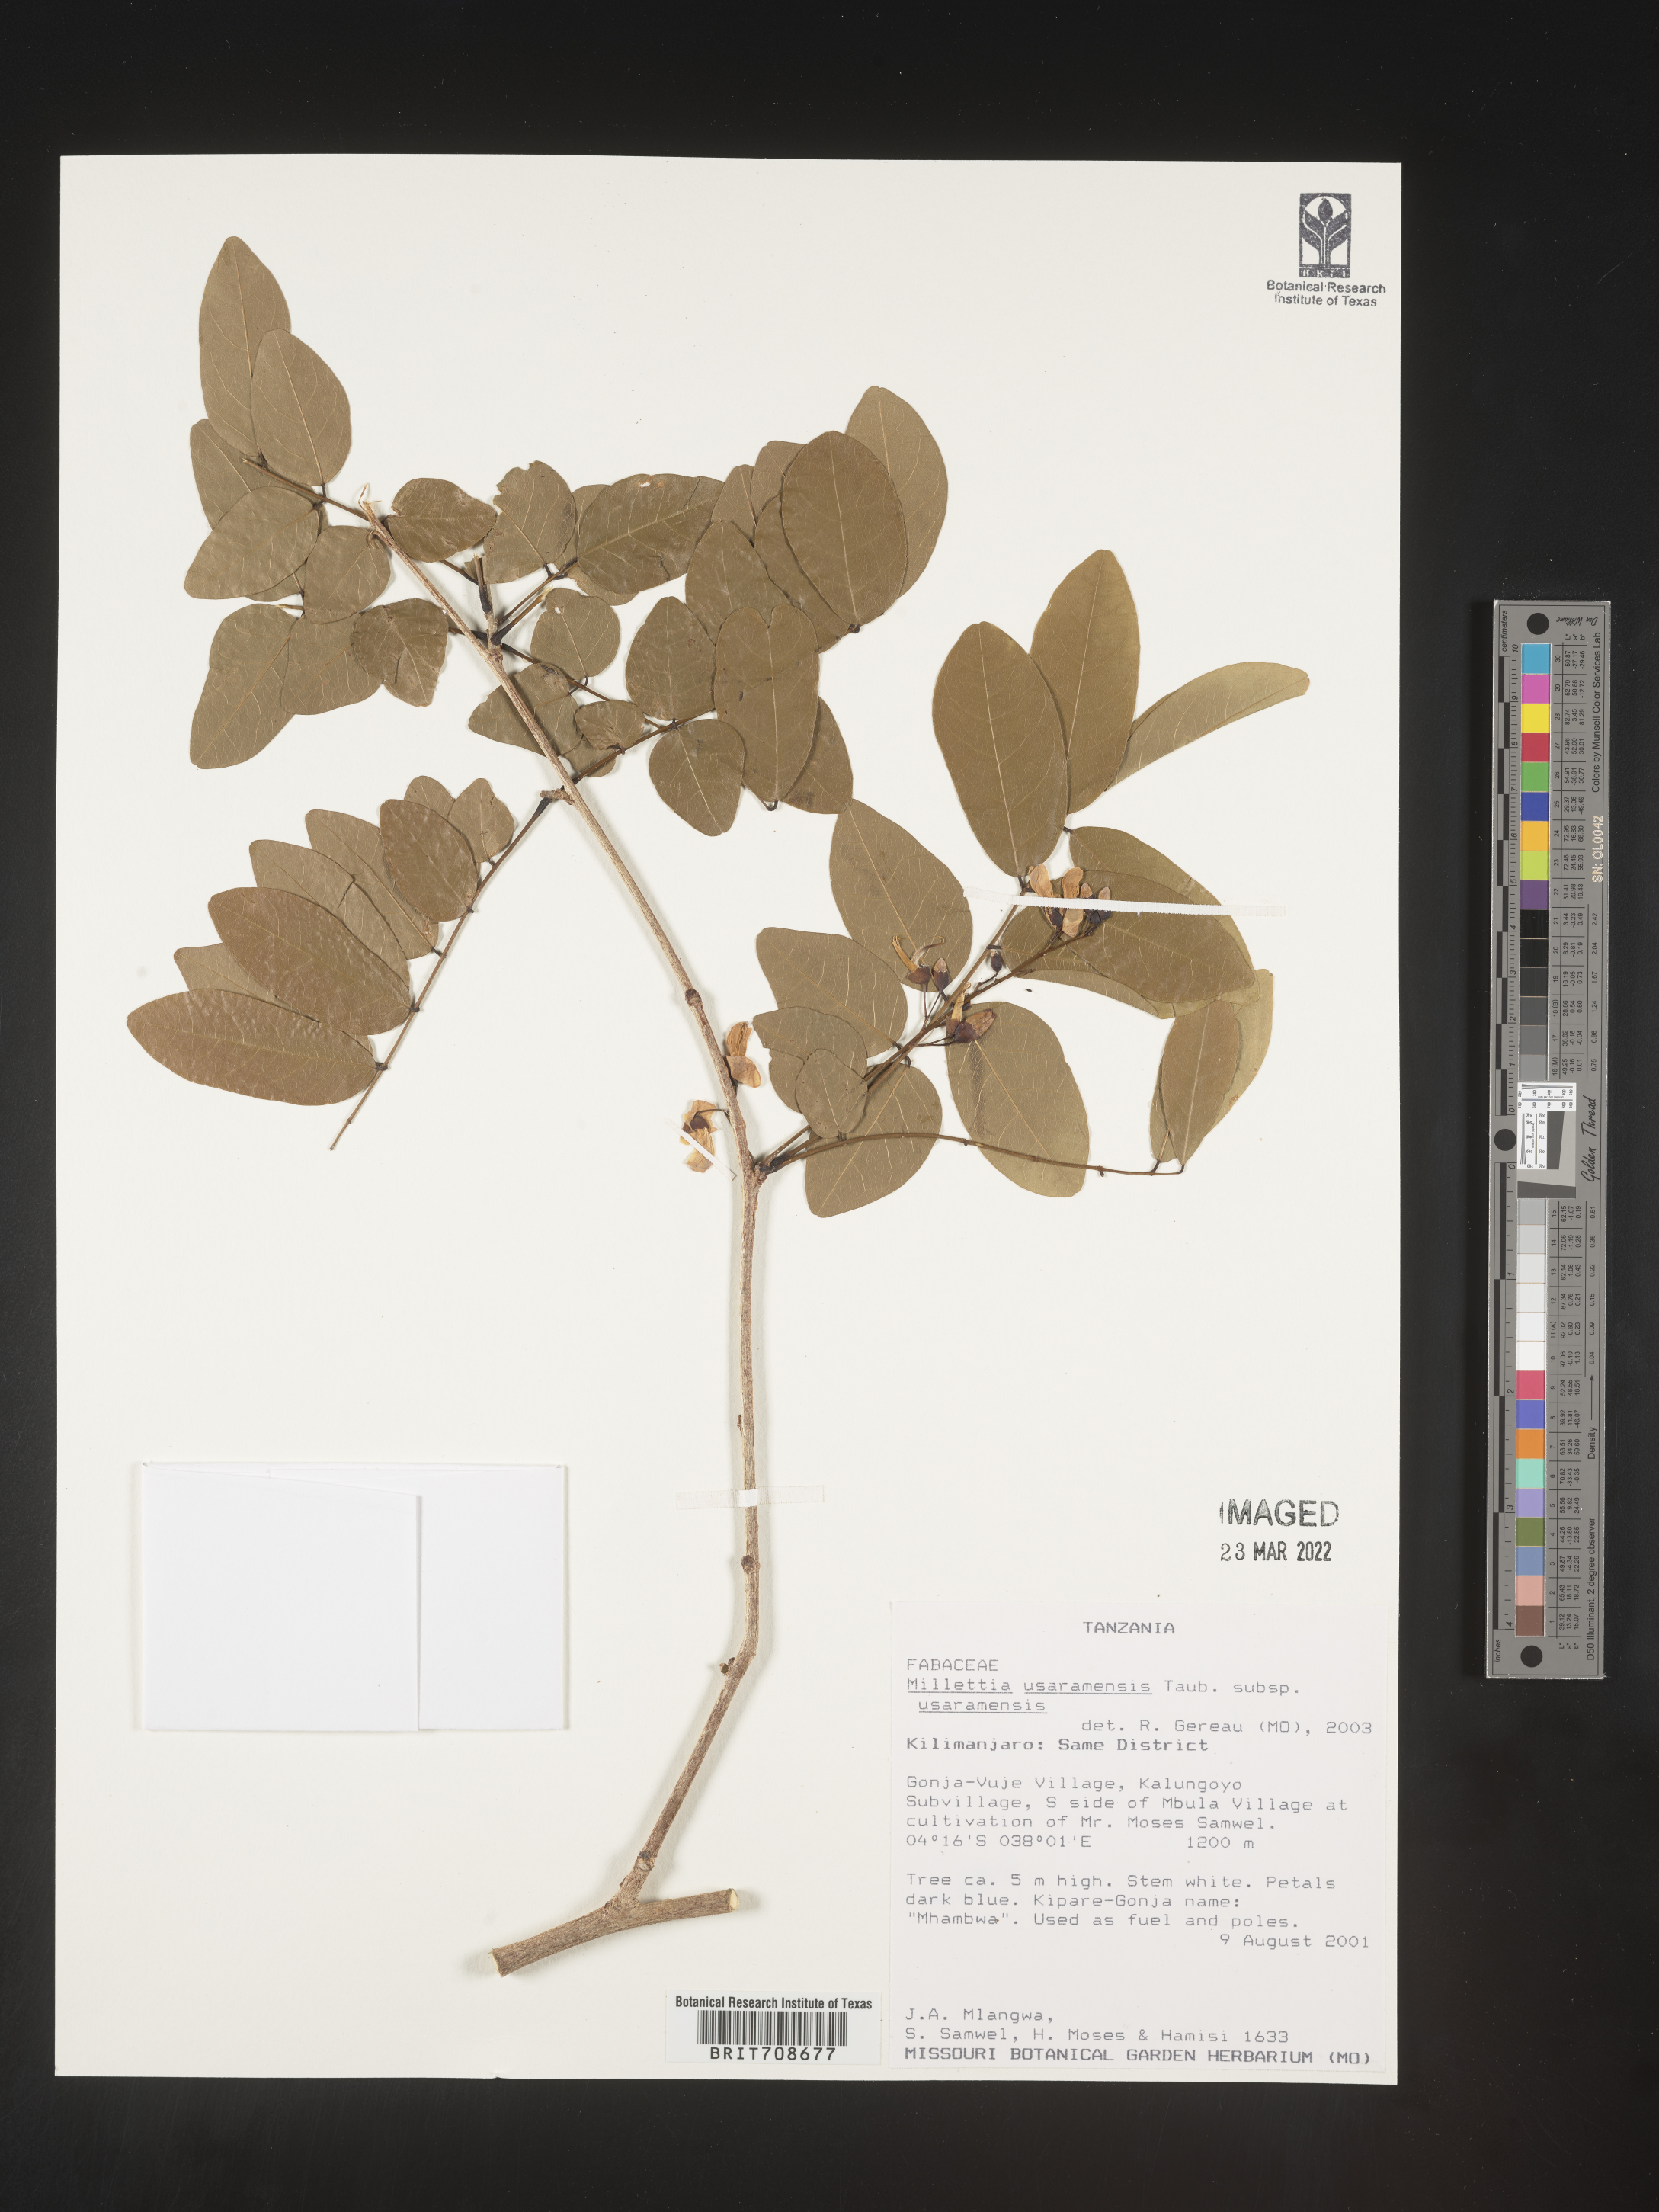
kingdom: Plantae
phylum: Tracheophyta
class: Magnoliopsida
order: Fabales
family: Fabaceae
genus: Millettia
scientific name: Millettia
